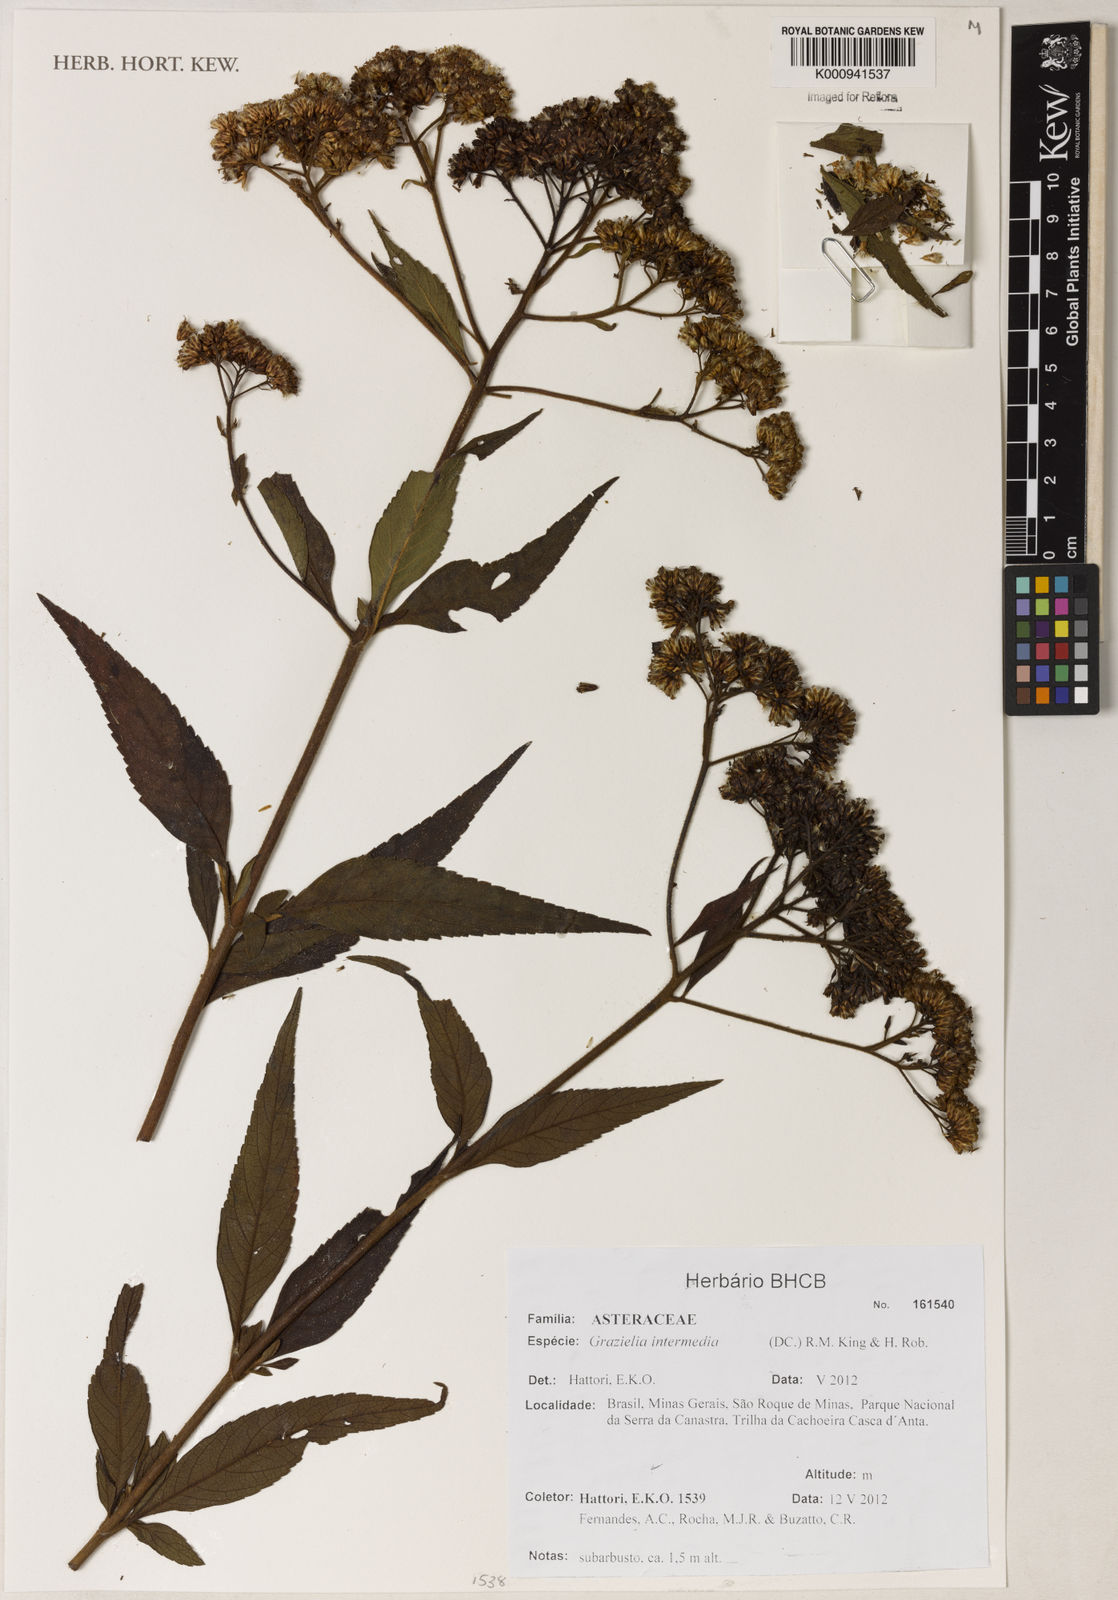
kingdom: Plantae
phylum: Tracheophyta
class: Magnoliopsida
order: Asterales
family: Asteraceae
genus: Grazielia
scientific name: Grazielia intermedia
